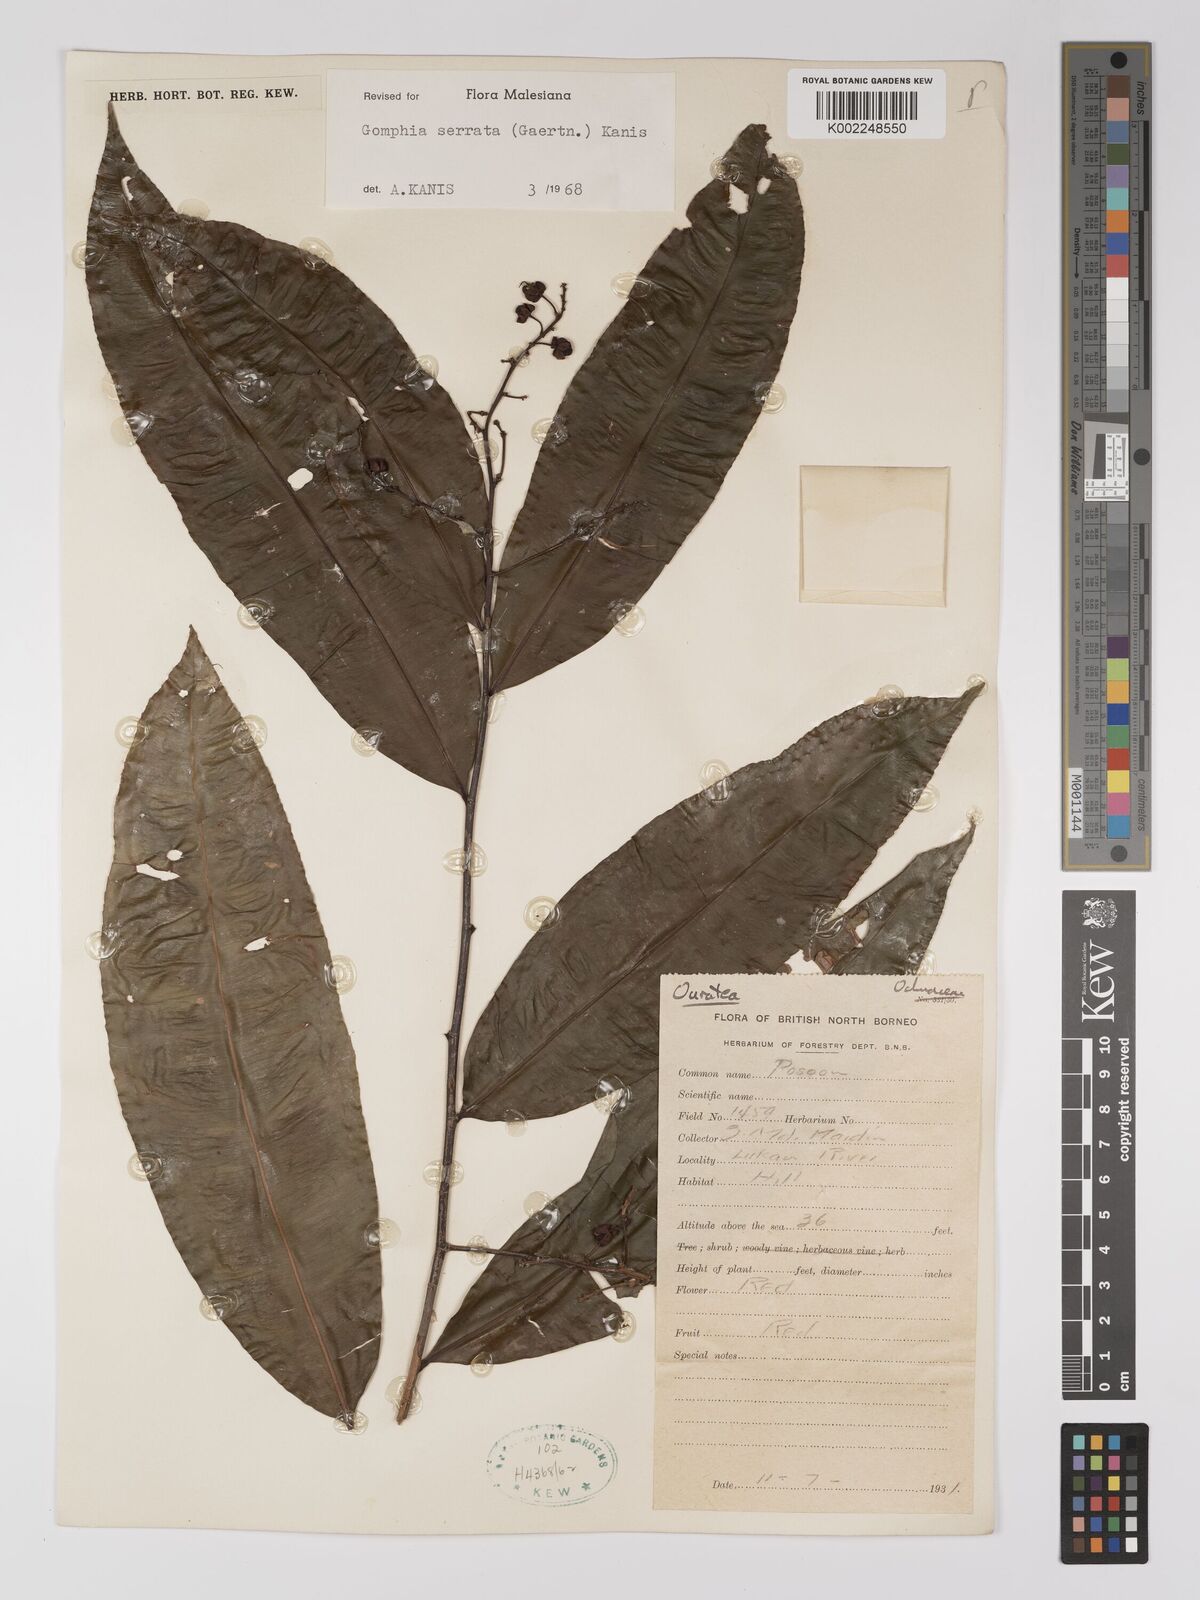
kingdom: Plantae
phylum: Tracheophyta
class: Magnoliopsida
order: Malpighiales
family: Ochnaceae
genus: Gomphia
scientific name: Gomphia serrata
